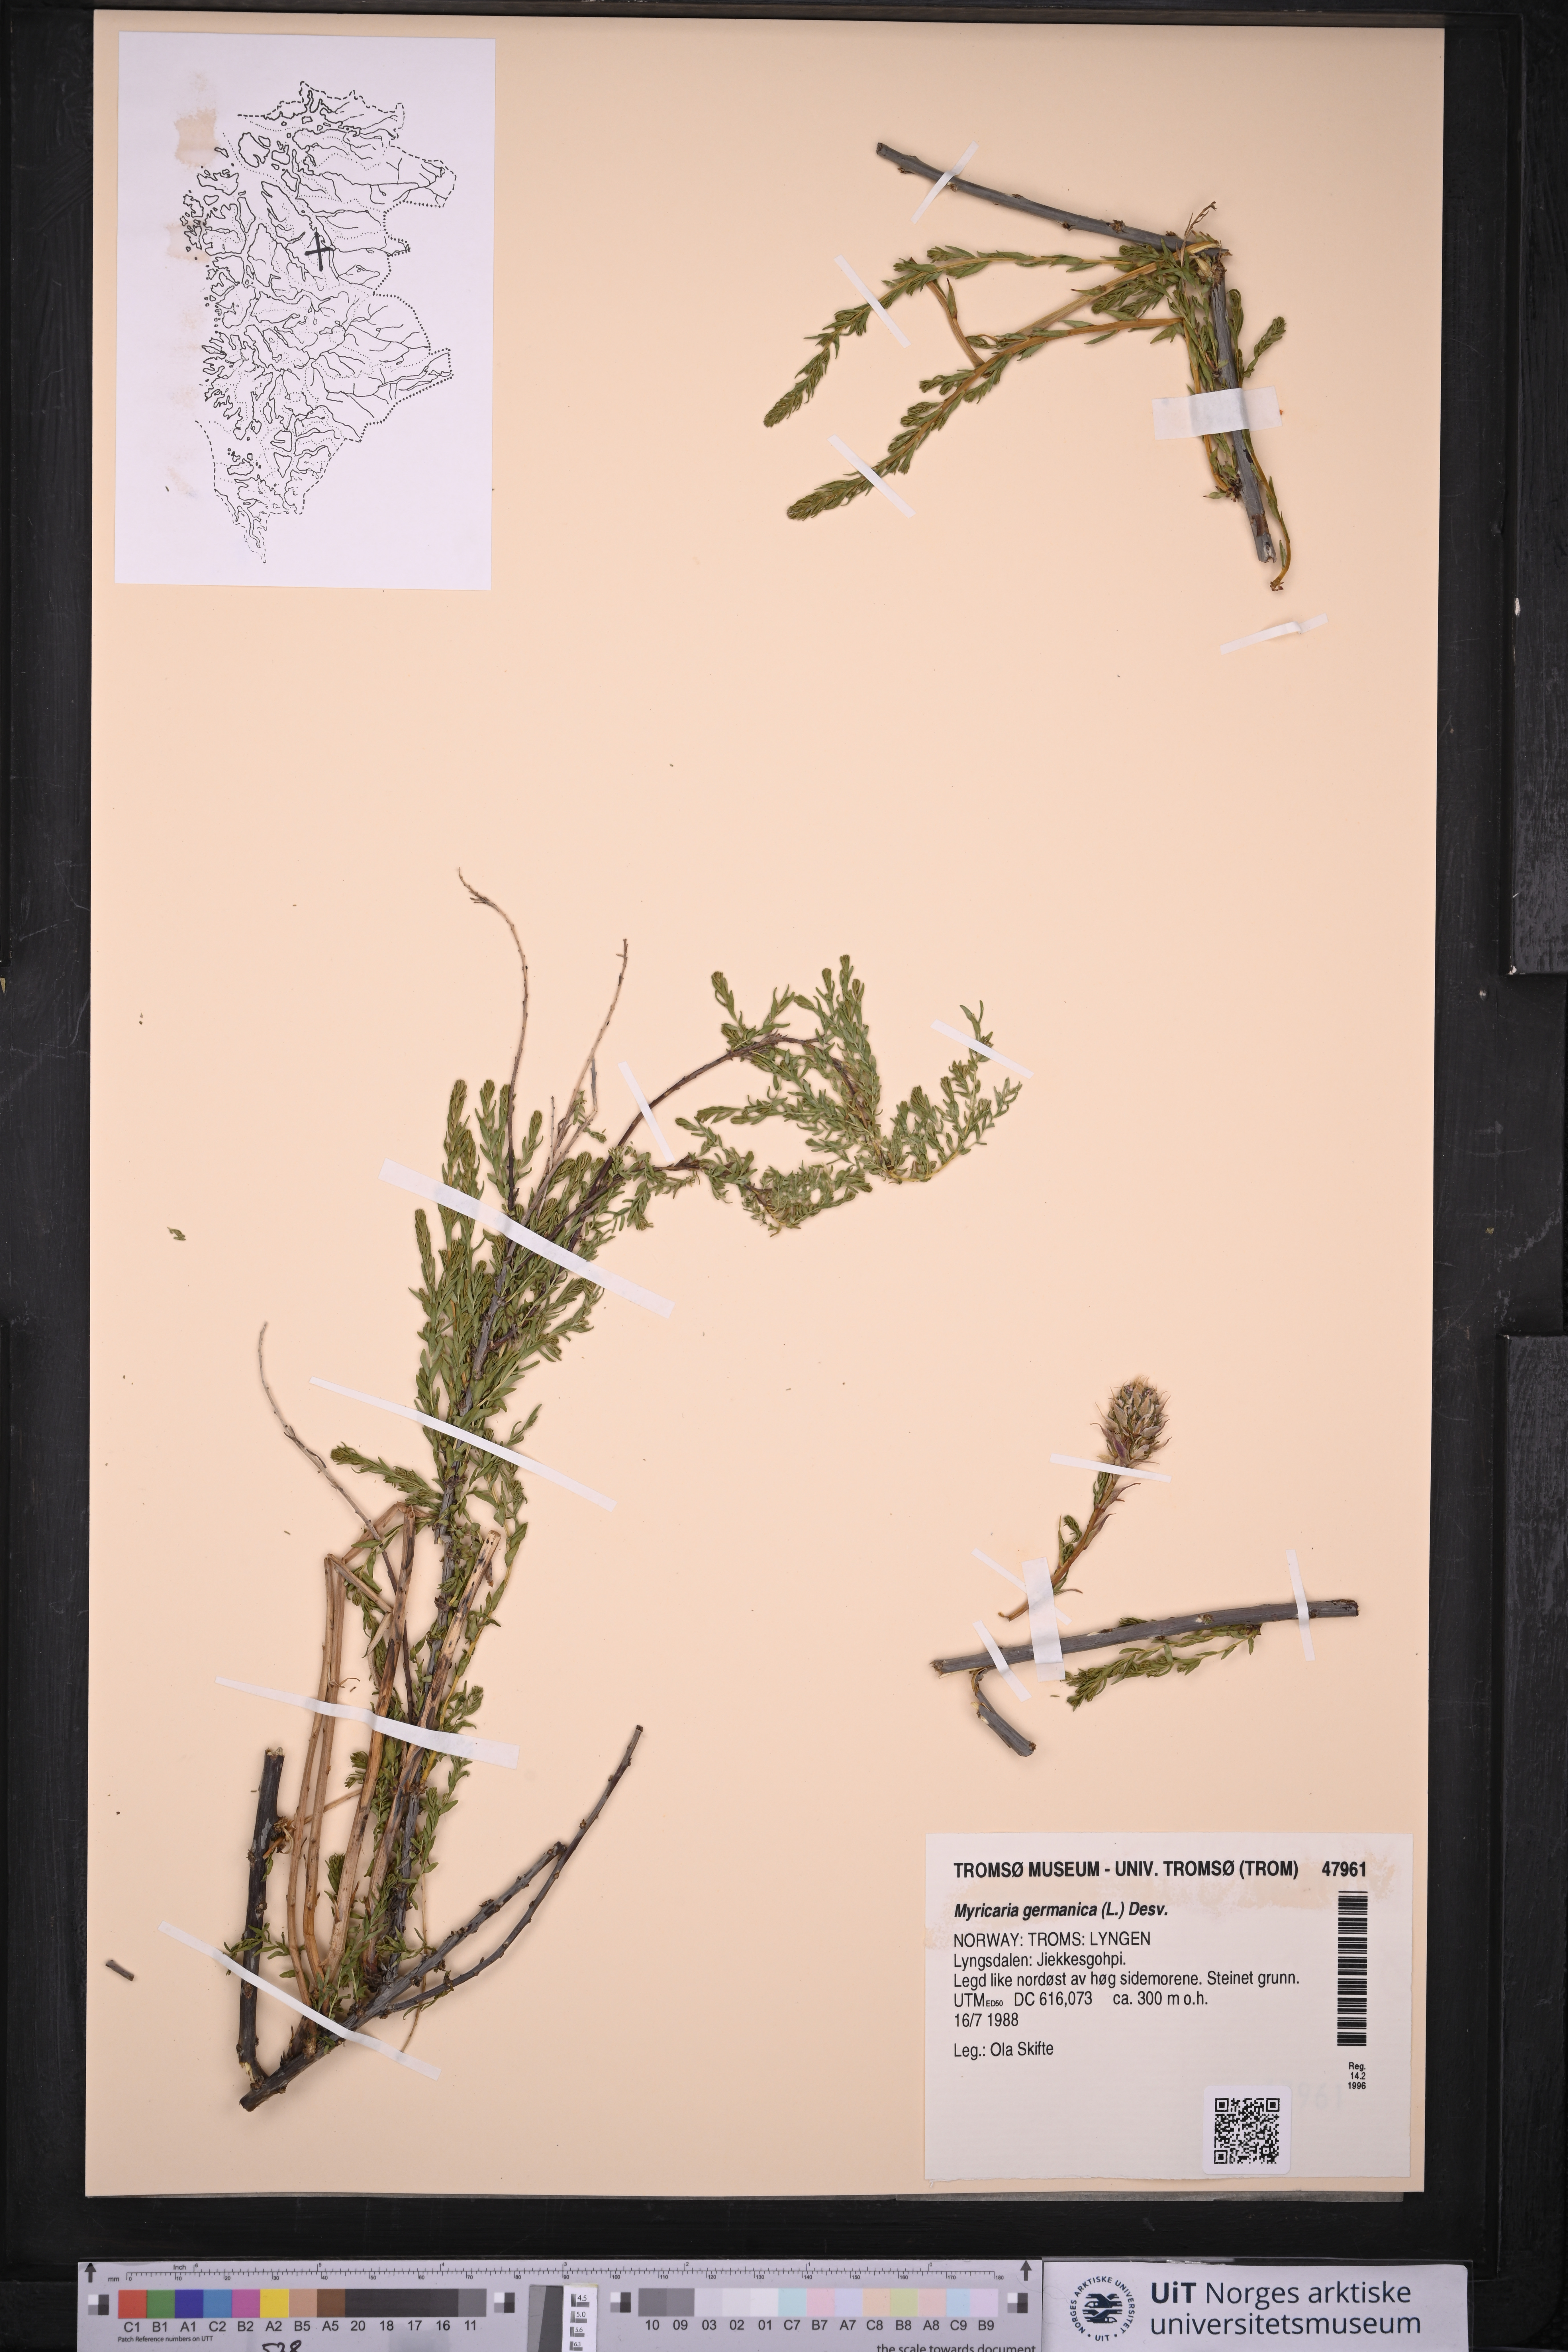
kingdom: Plantae
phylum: Tracheophyta
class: Magnoliopsida
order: Caryophyllales
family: Tamaricaceae
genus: Myricaria
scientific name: Myricaria germanica
